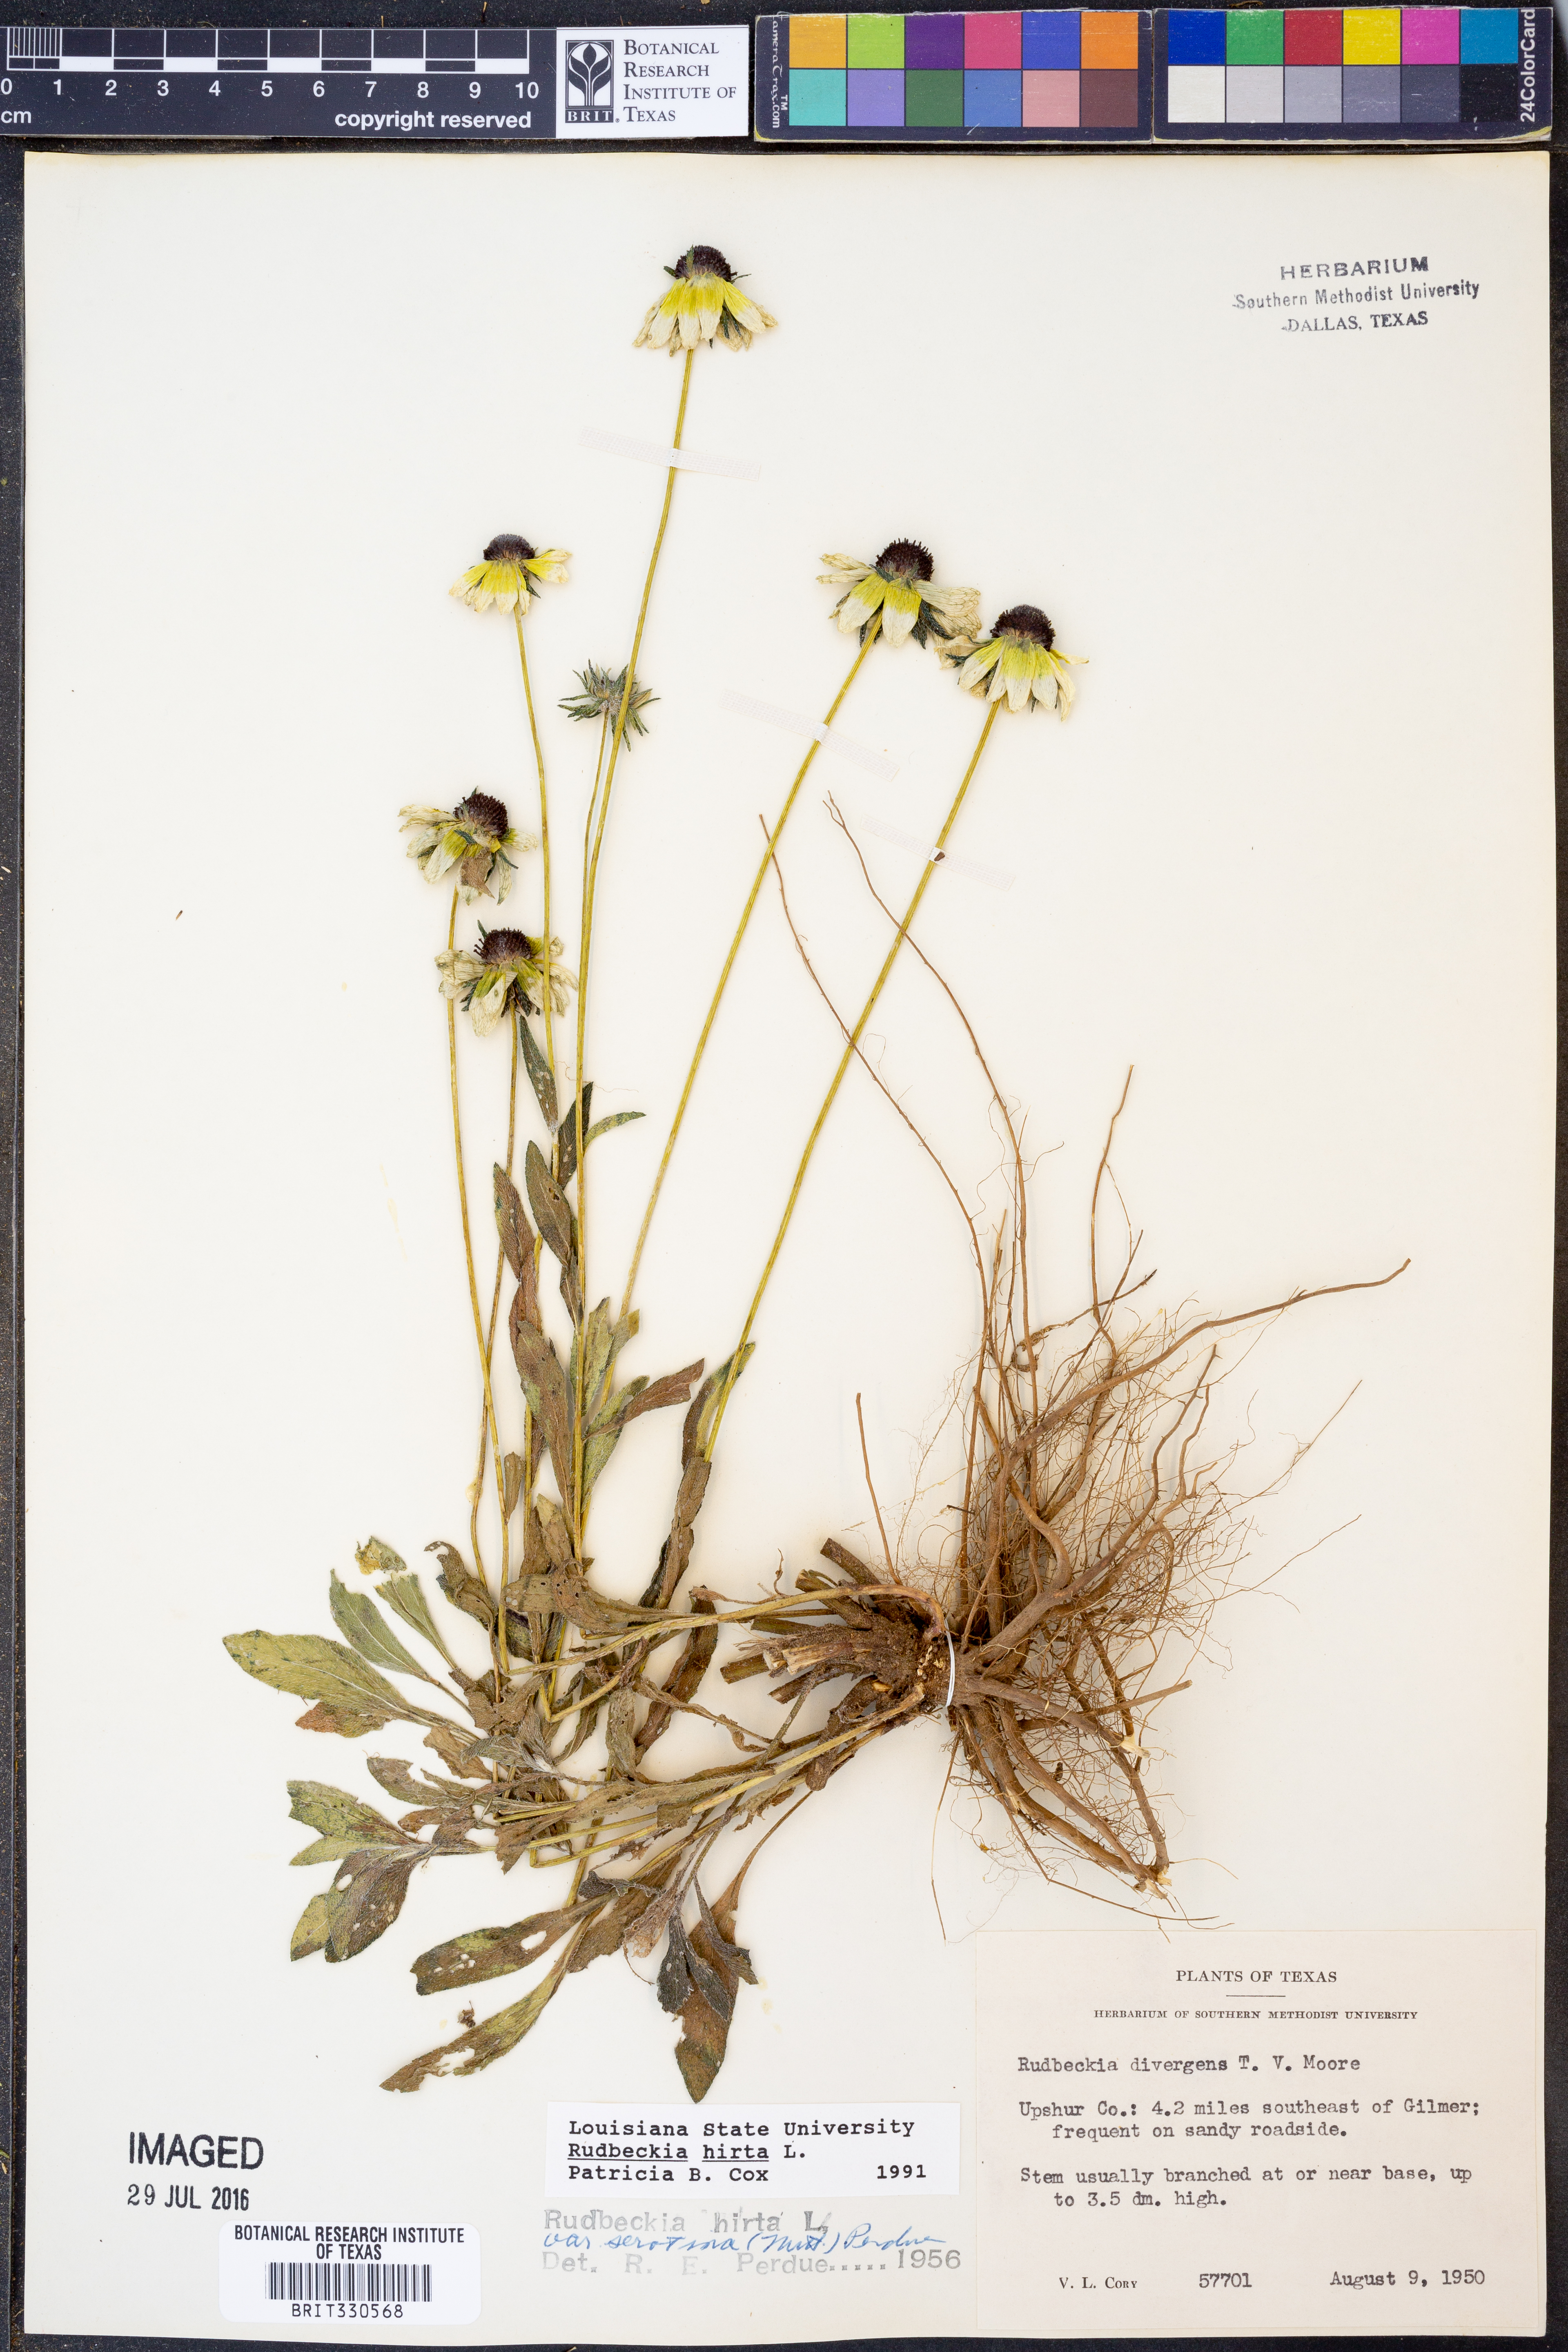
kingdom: Plantae
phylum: Tracheophyta
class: Magnoliopsida
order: Asterales
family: Asteraceae
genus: Rudbeckia
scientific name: Rudbeckia hirta
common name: Black-eyed-susan
